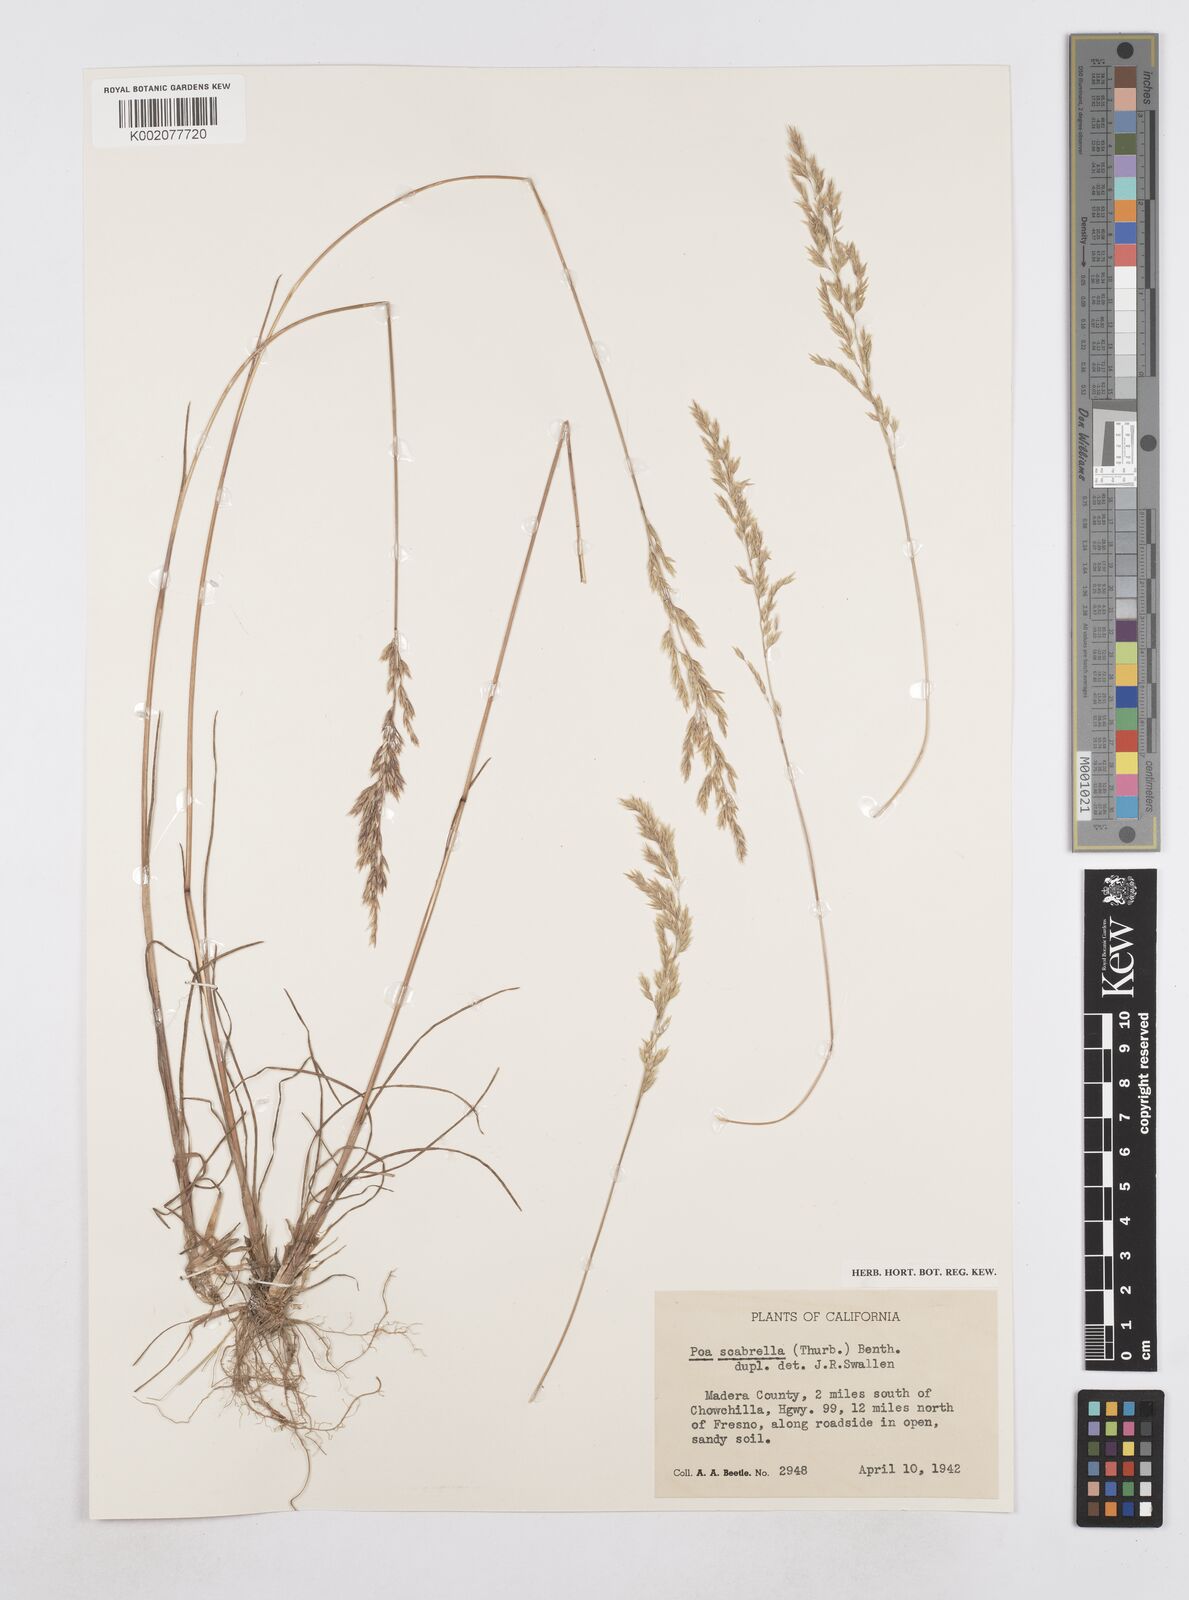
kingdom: Plantae
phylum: Tracheophyta
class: Liliopsida
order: Poales
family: Poaceae
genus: Poa
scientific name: Poa secunda
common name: Sandberg bluegrass
